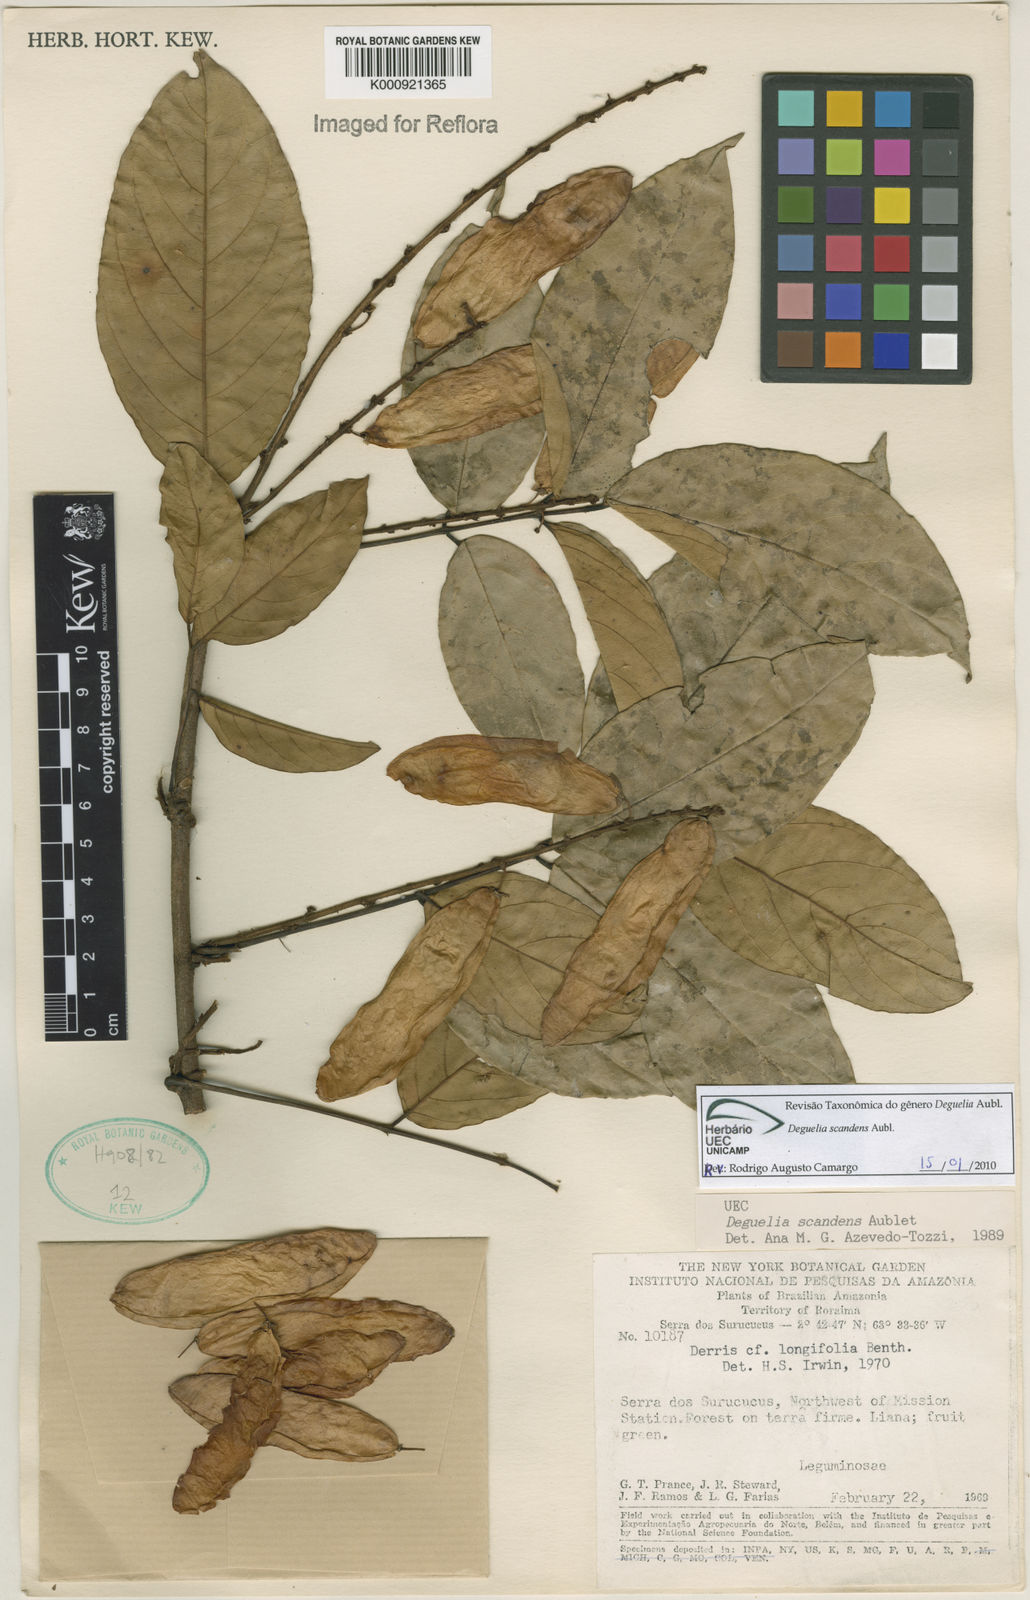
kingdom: Plantae
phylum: Tracheophyta
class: Magnoliopsida
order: Fabales
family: Fabaceae
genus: Deguelia
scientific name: Deguelia scandens
